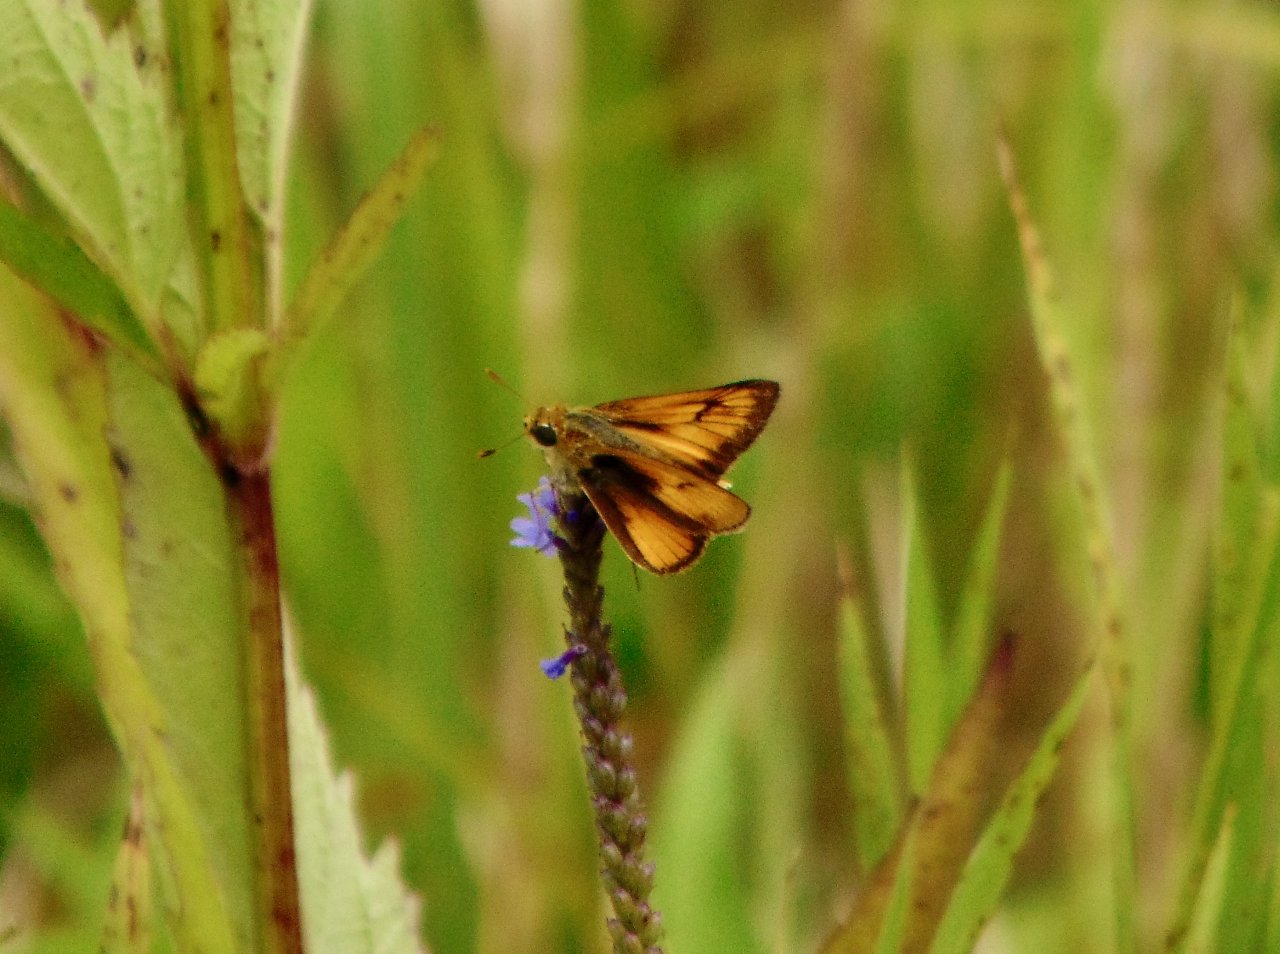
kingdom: Animalia
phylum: Arthropoda
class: Insecta
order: Lepidoptera
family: Hesperiidae
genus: Atrytone
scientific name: Atrytone delaware
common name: Delaware Skipper
